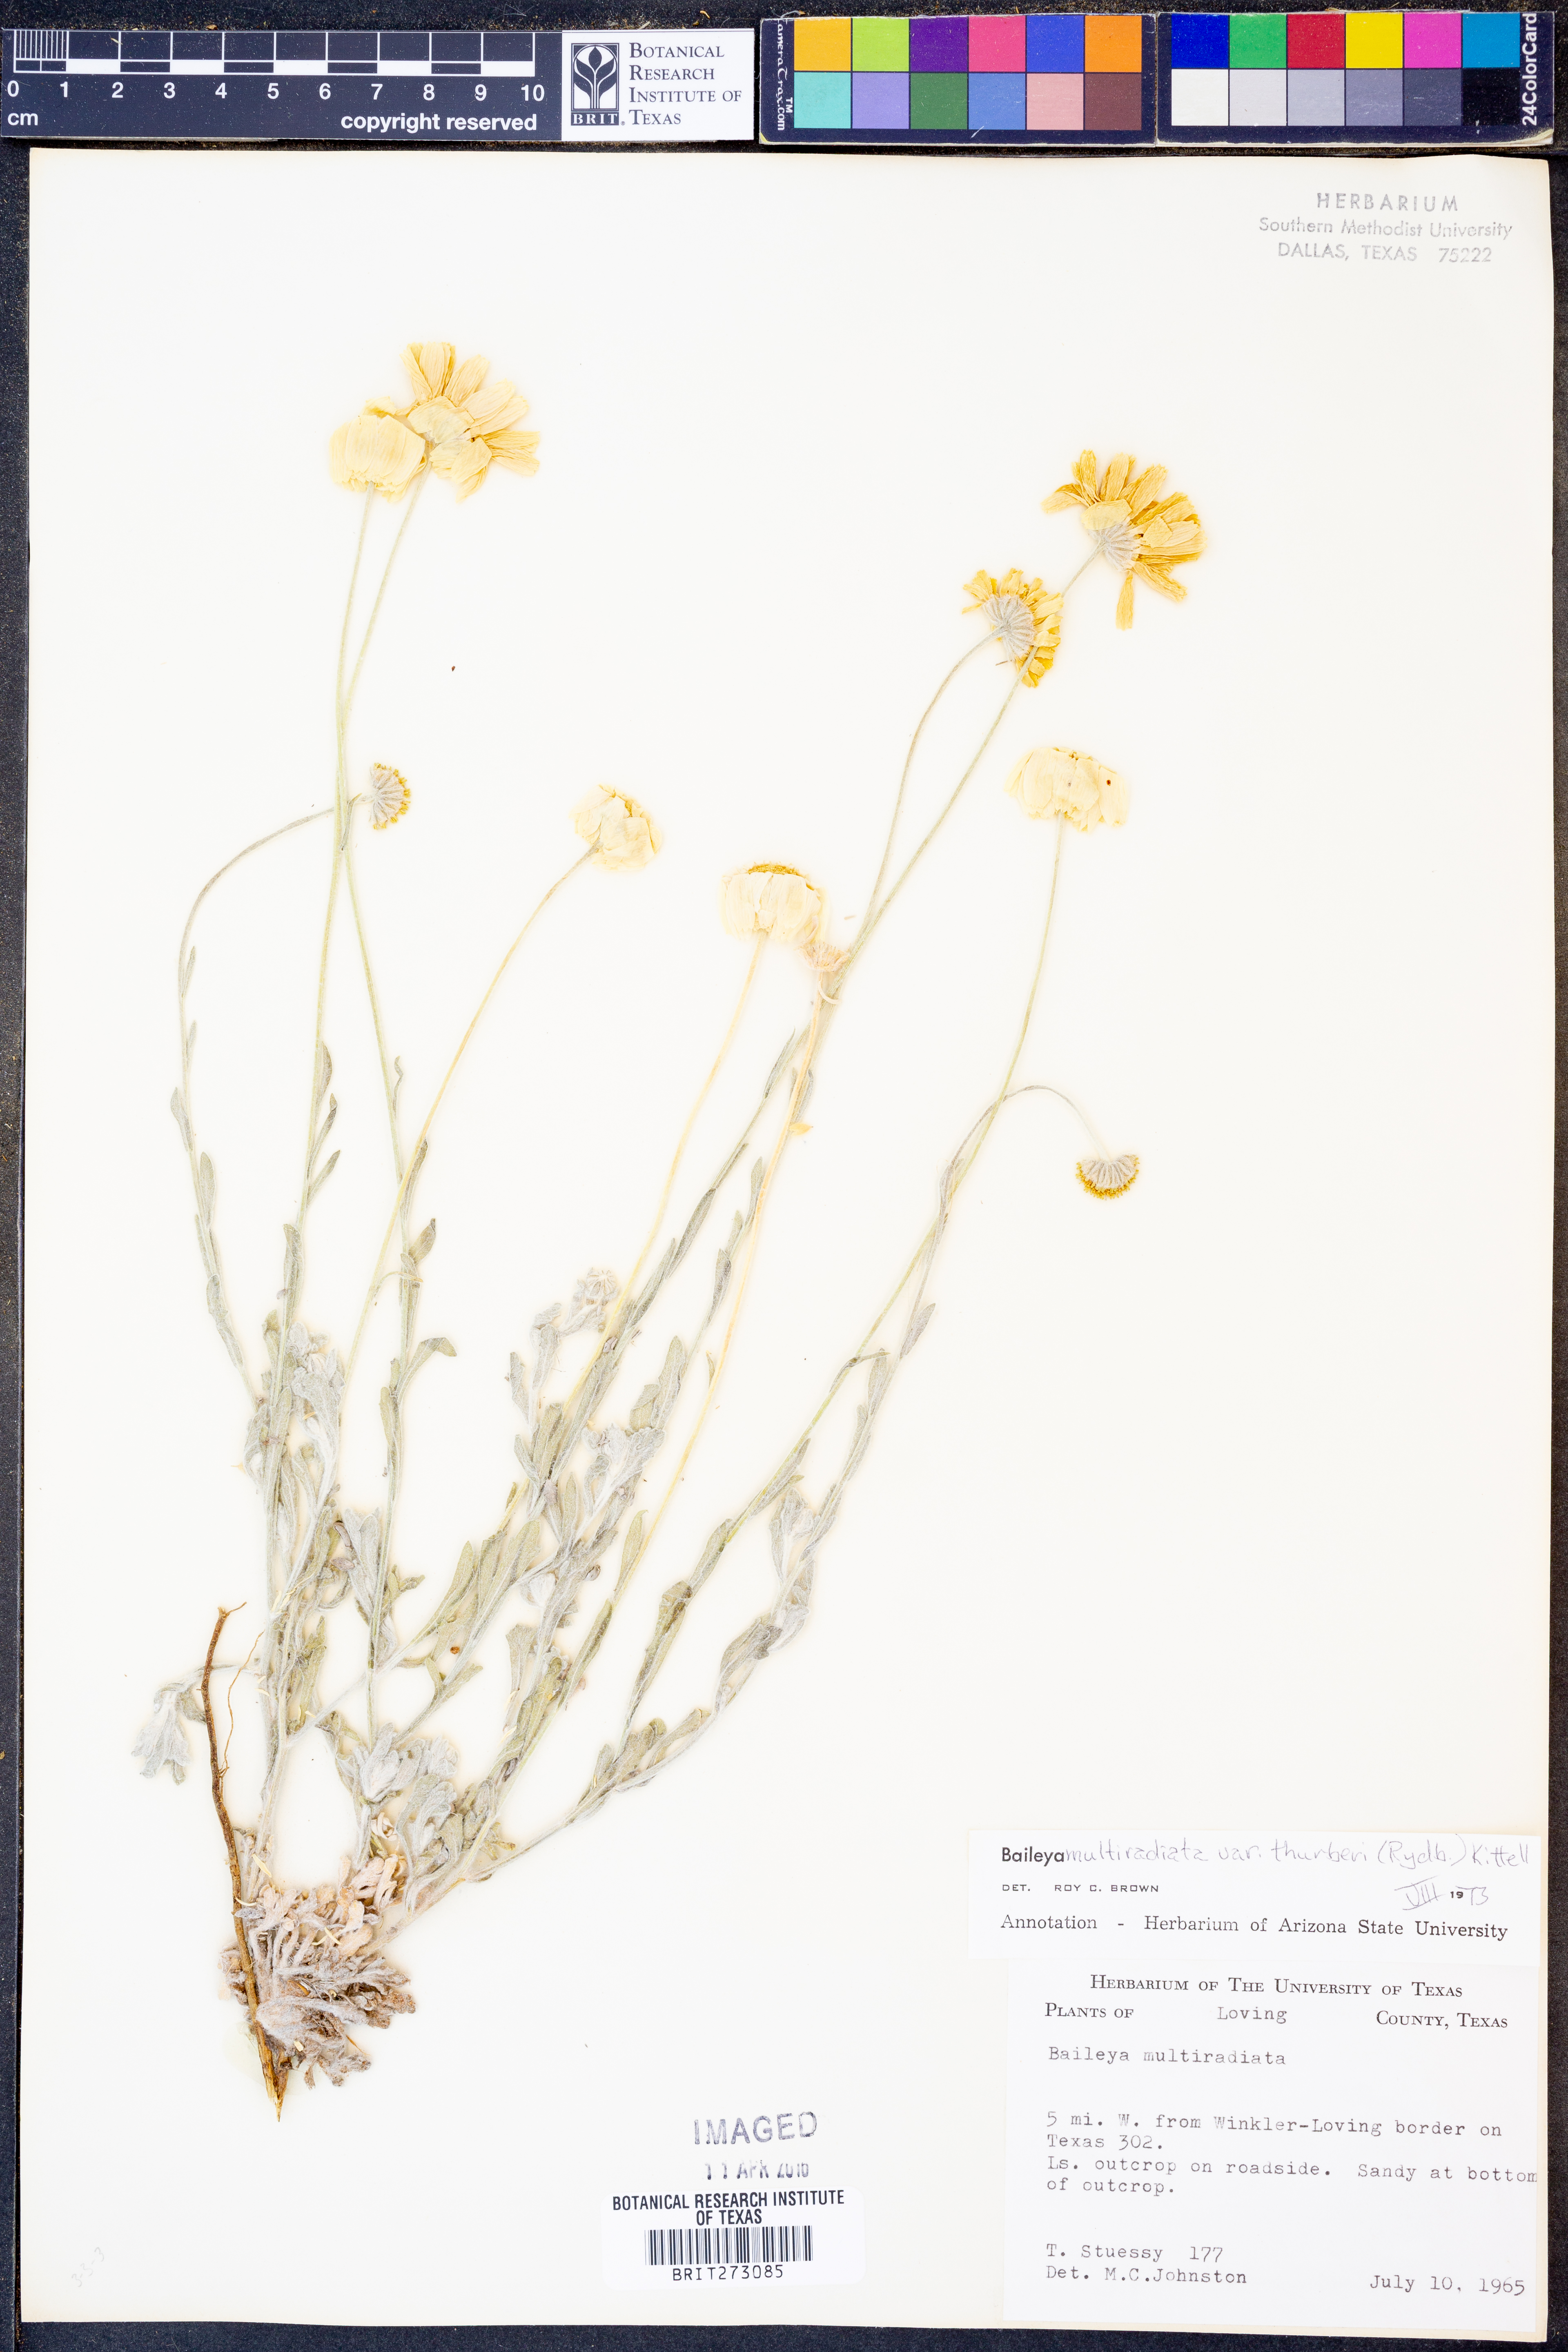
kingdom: Plantae
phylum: Tracheophyta
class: Magnoliopsida
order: Asterales
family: Asteraceae
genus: Baileya
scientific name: Baileya multiradiata
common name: Desert-marigold
